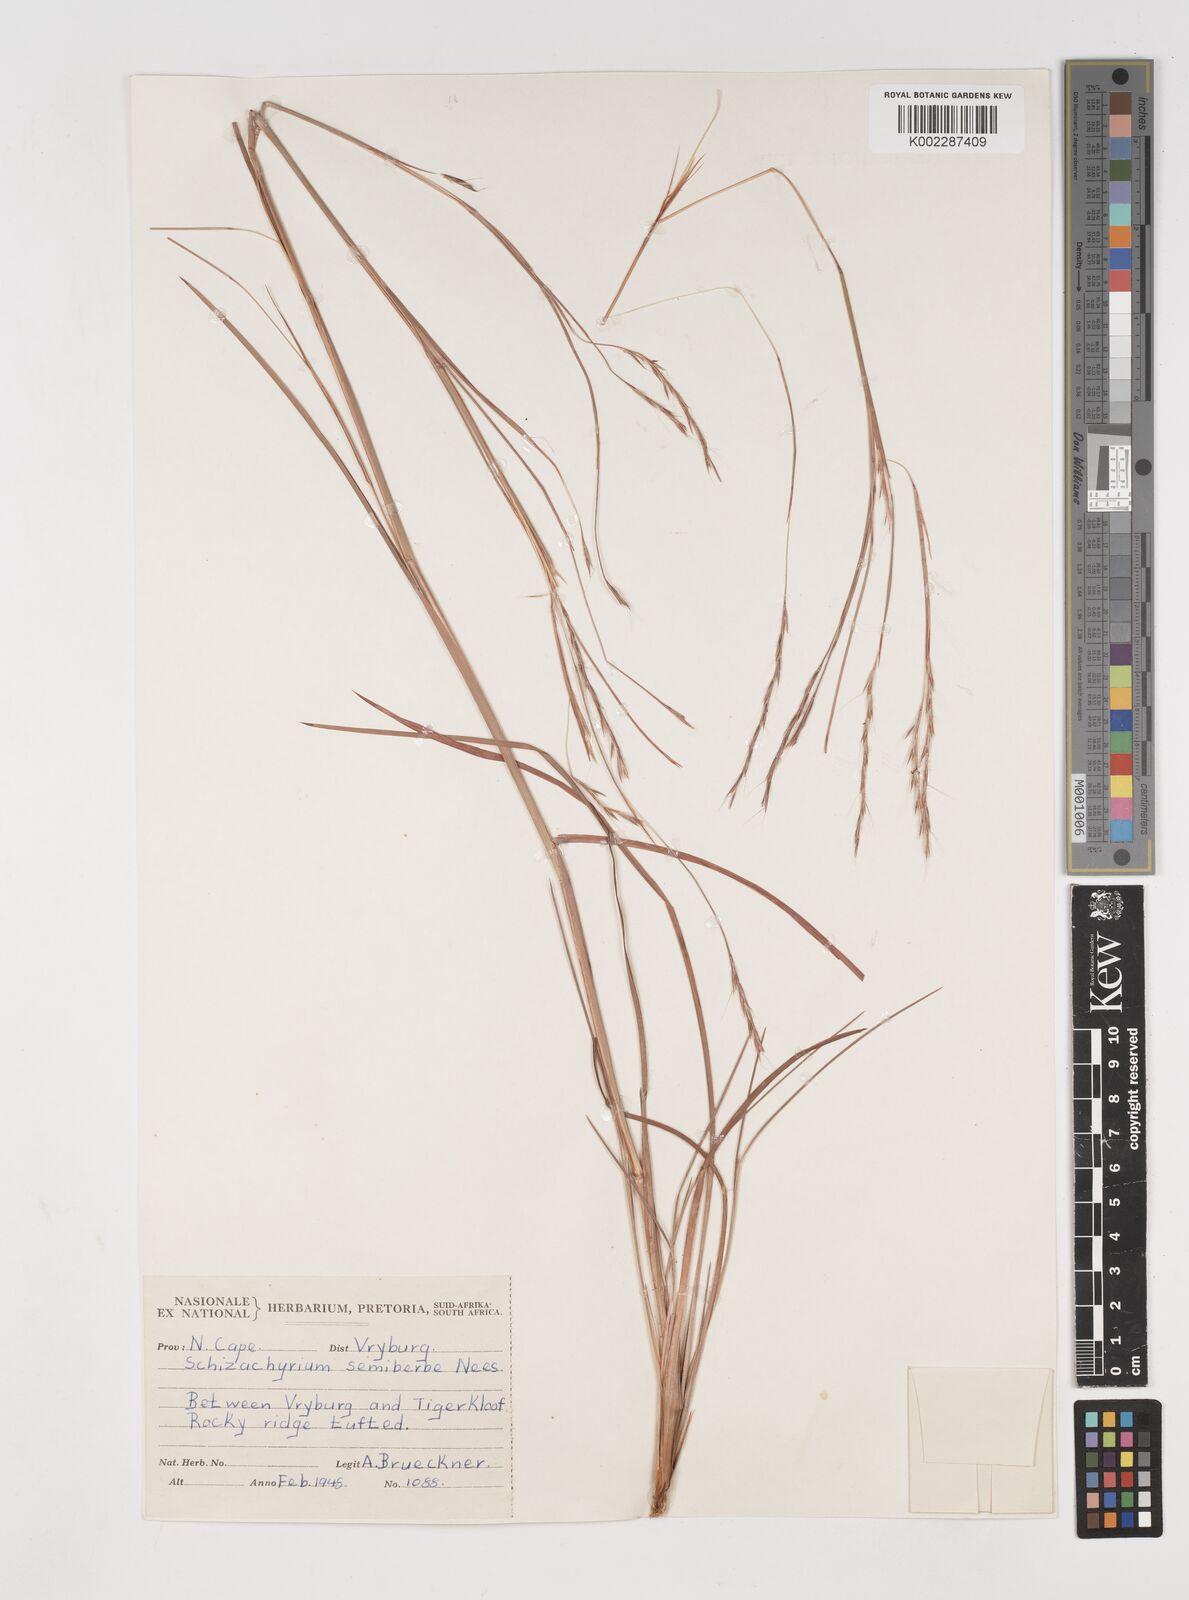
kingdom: Plantae
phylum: Tracheophyta
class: Liliopsida
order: Poales
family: Poaceae
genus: Schizachyrium
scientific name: Schizachyrium sanguineum
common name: Crimson bluestem
